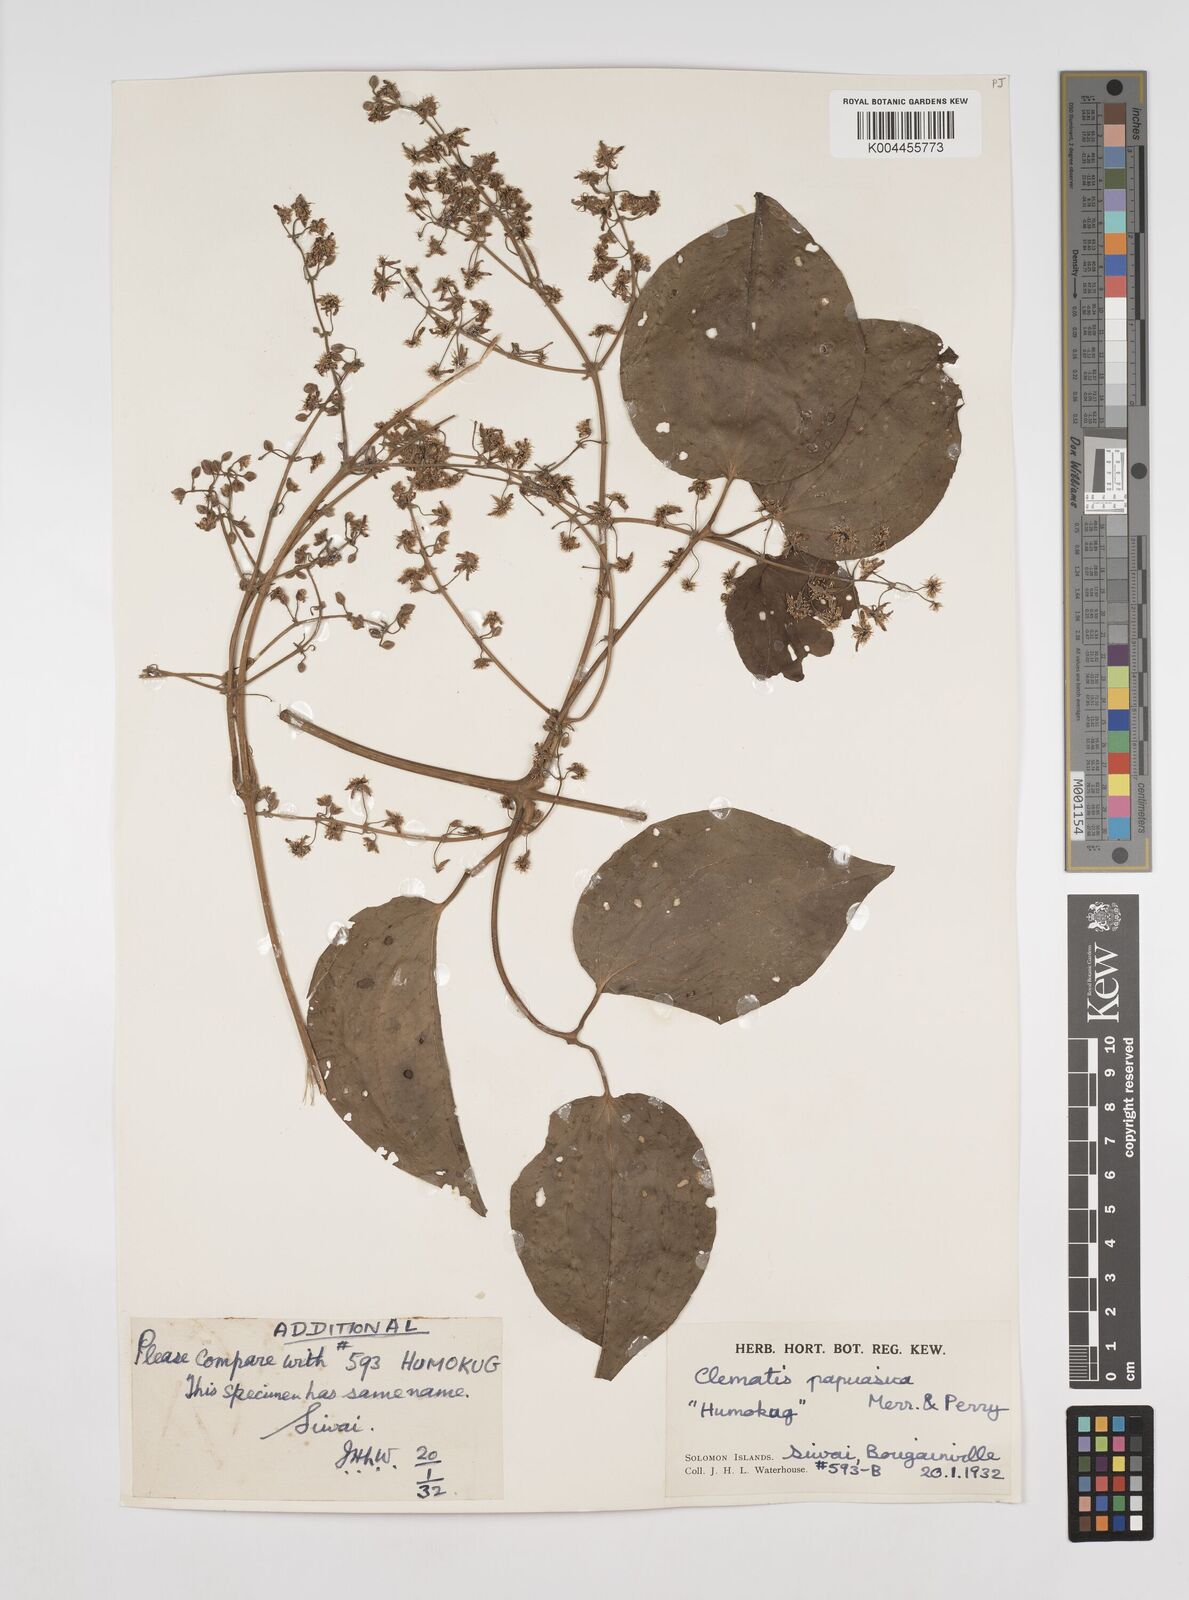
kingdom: Plantae
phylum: Tracheophyta
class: Magnoliopsida
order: Ranunculales
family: Ranunculaceae
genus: Clematis
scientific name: Clematis papuasica
